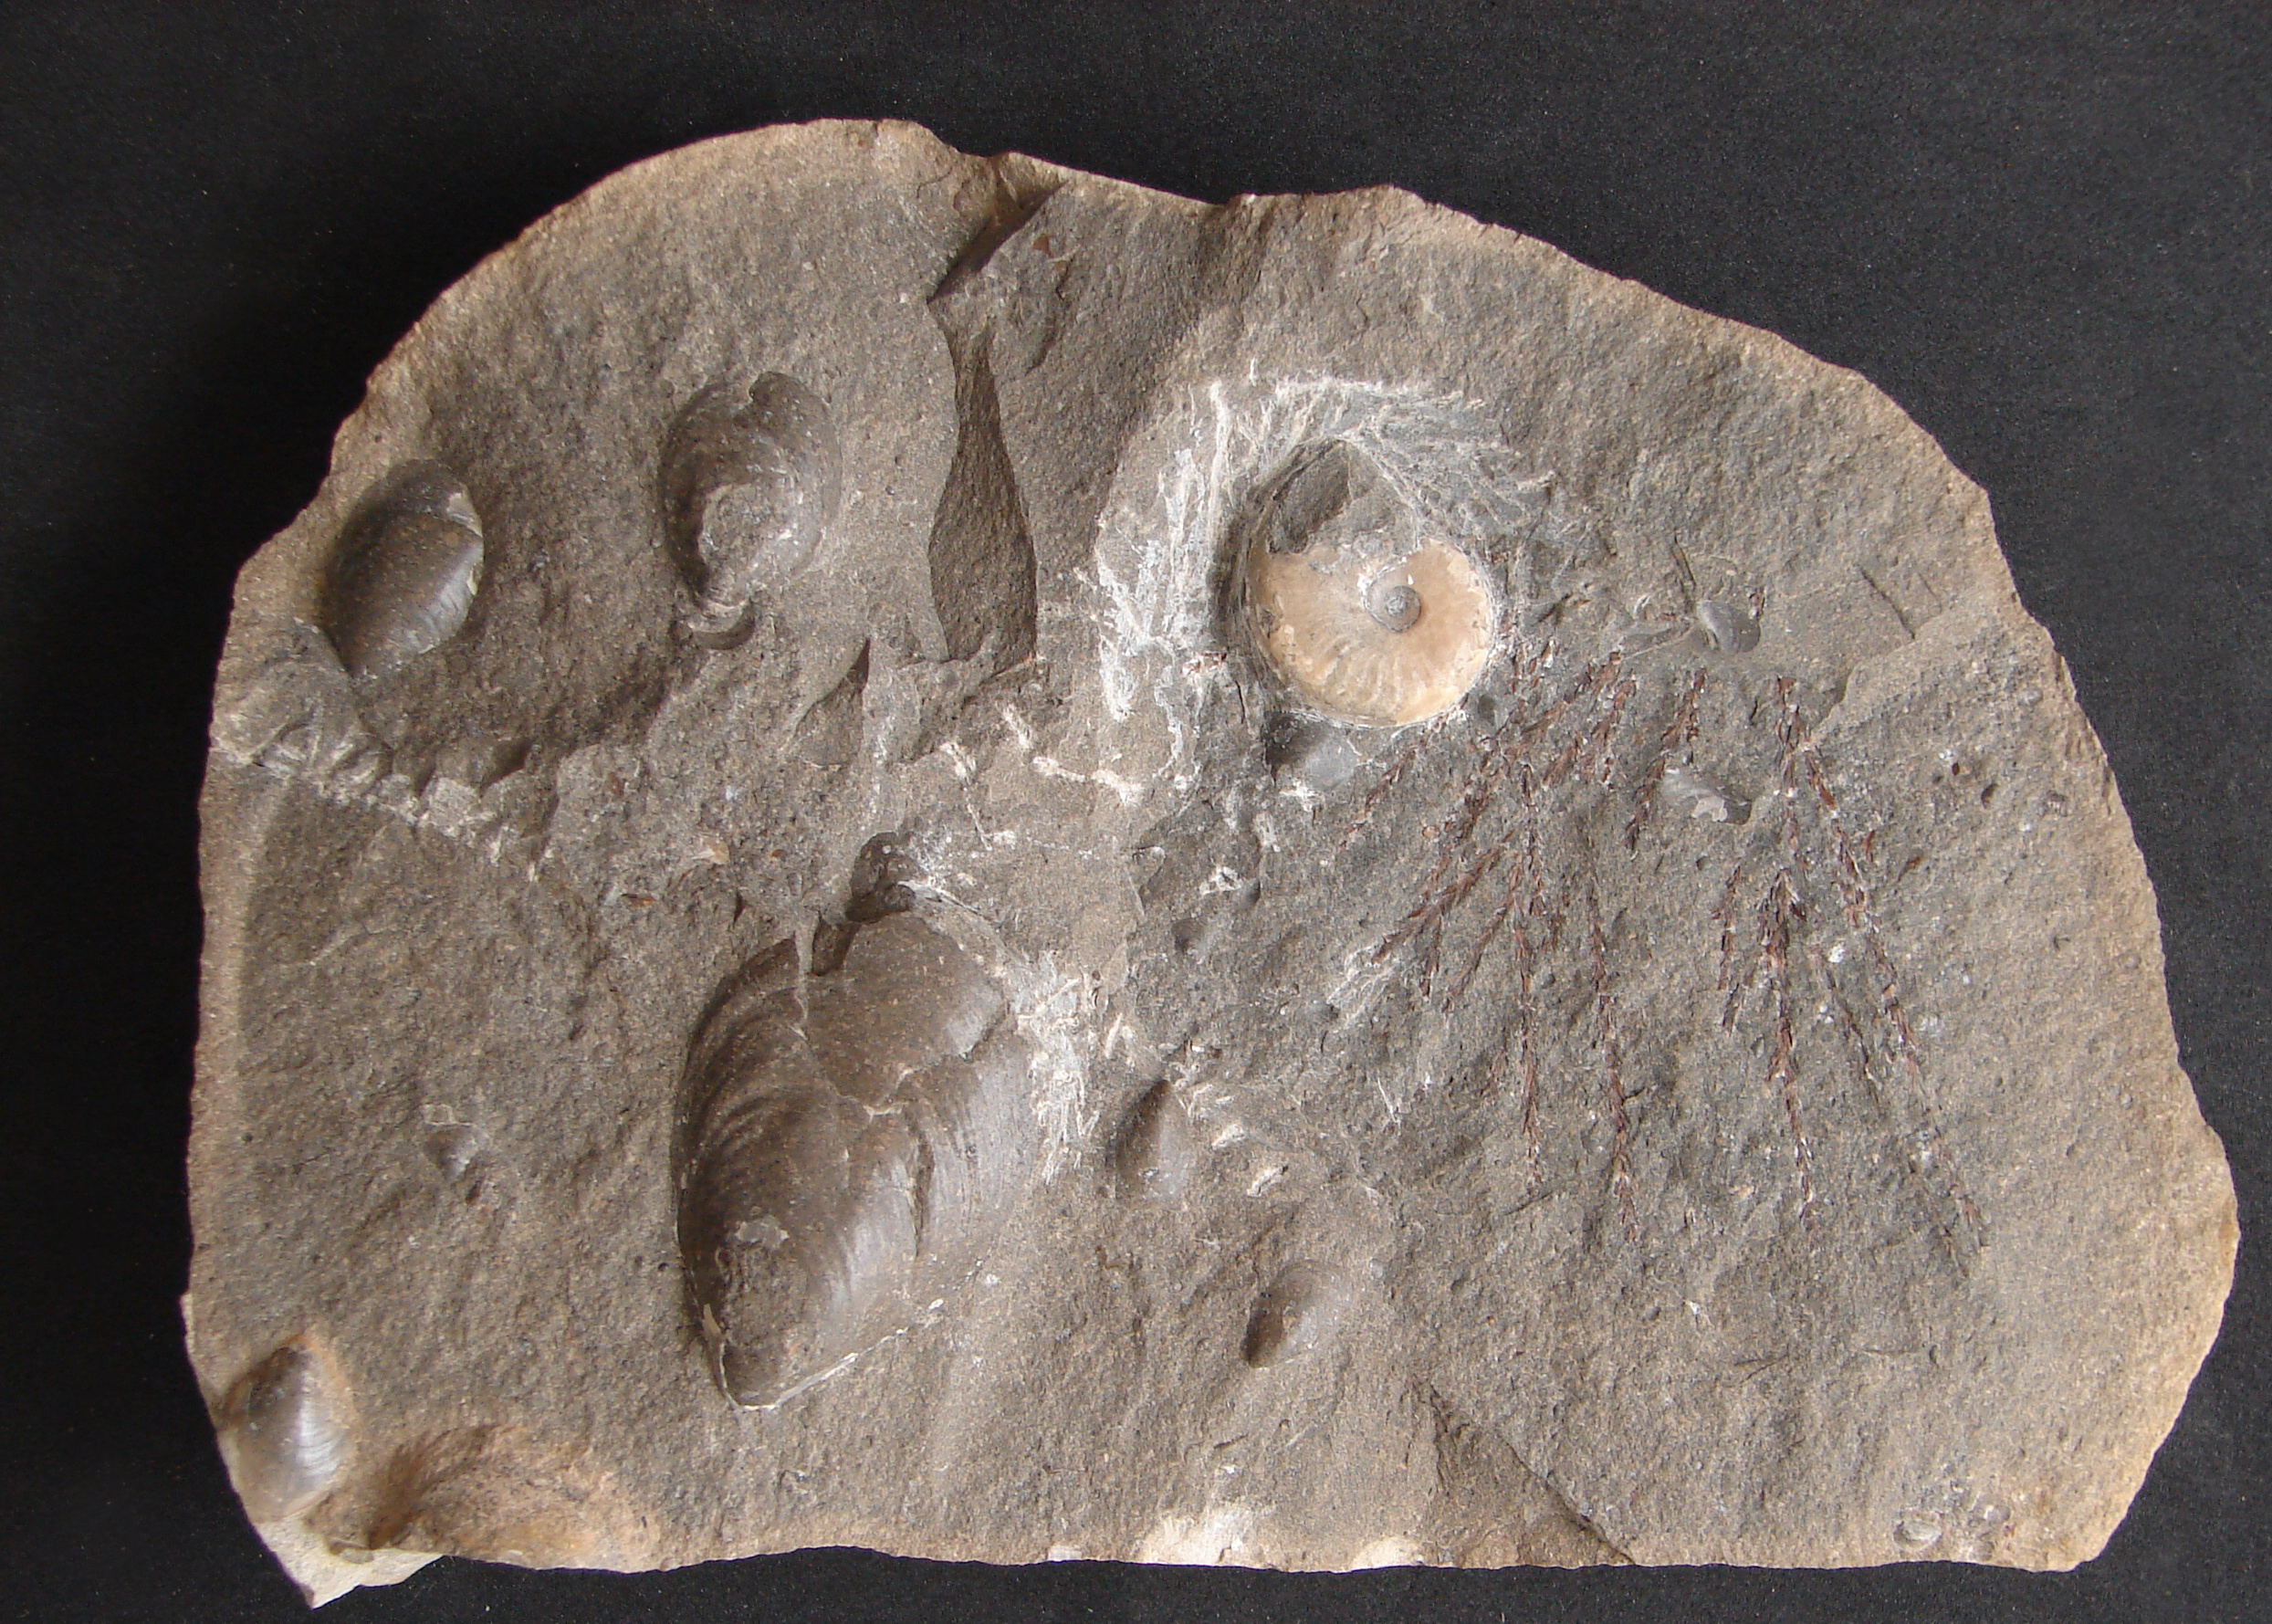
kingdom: Animalia
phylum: Mollusca
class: Cephalopoda
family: Hildoceratidae
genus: Harpoceras
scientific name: Harpoceras
